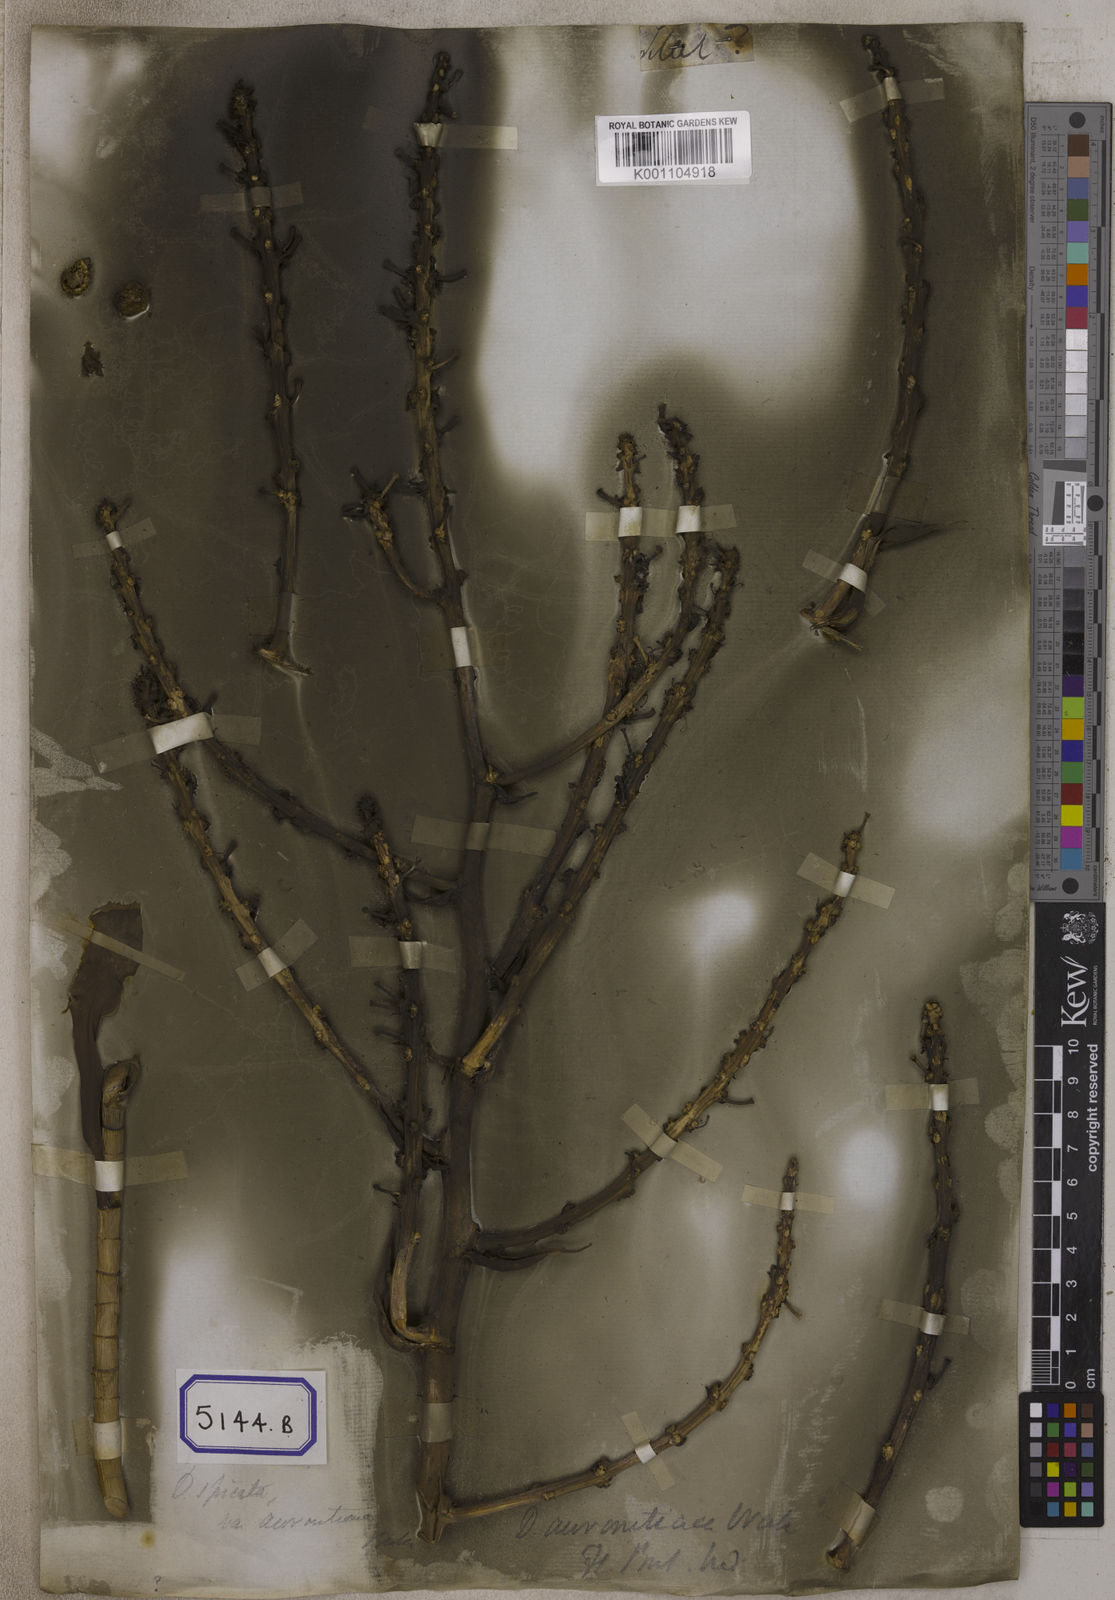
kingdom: Plantae
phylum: Tracheophyta
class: Liliopsida
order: Asparagales
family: Asparagaceae
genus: Dracaena
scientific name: Dracaena
